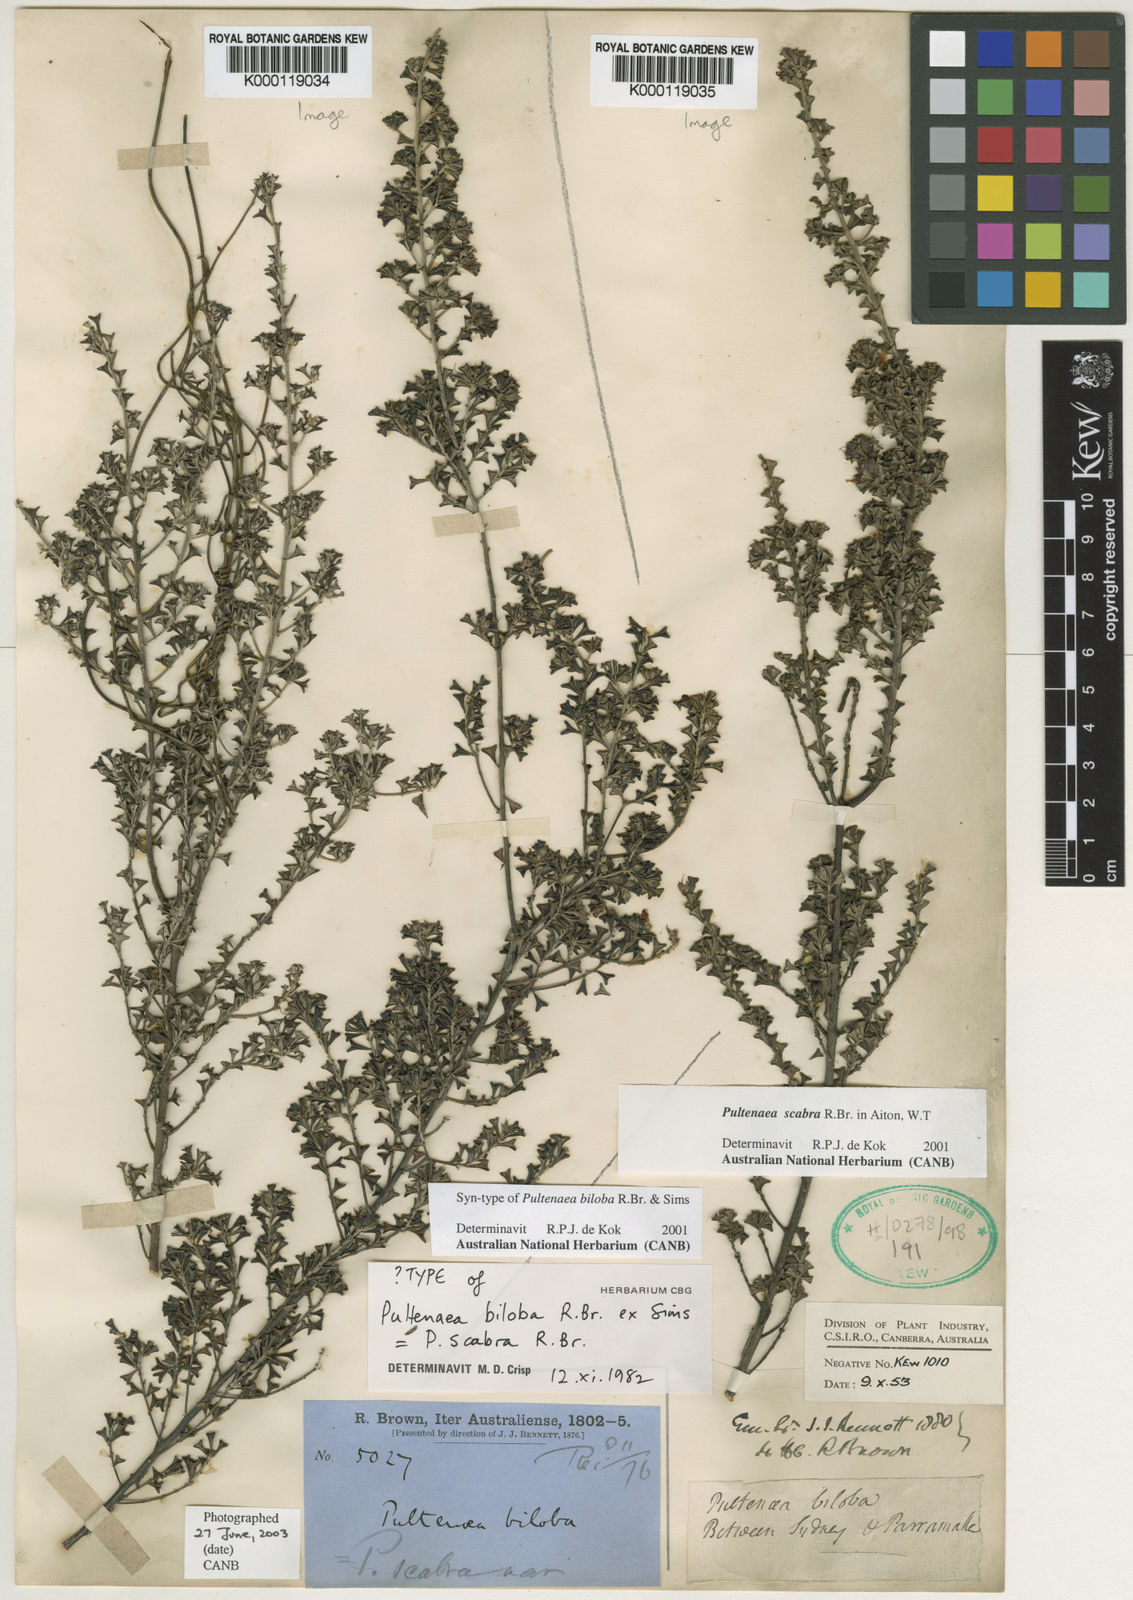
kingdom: Plantae
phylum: Tracheophyta
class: Magnoliopsida
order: Fabales
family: Fabaceae
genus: Pultenaea
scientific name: Pultenaea scabra
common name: Rough bush-pea
